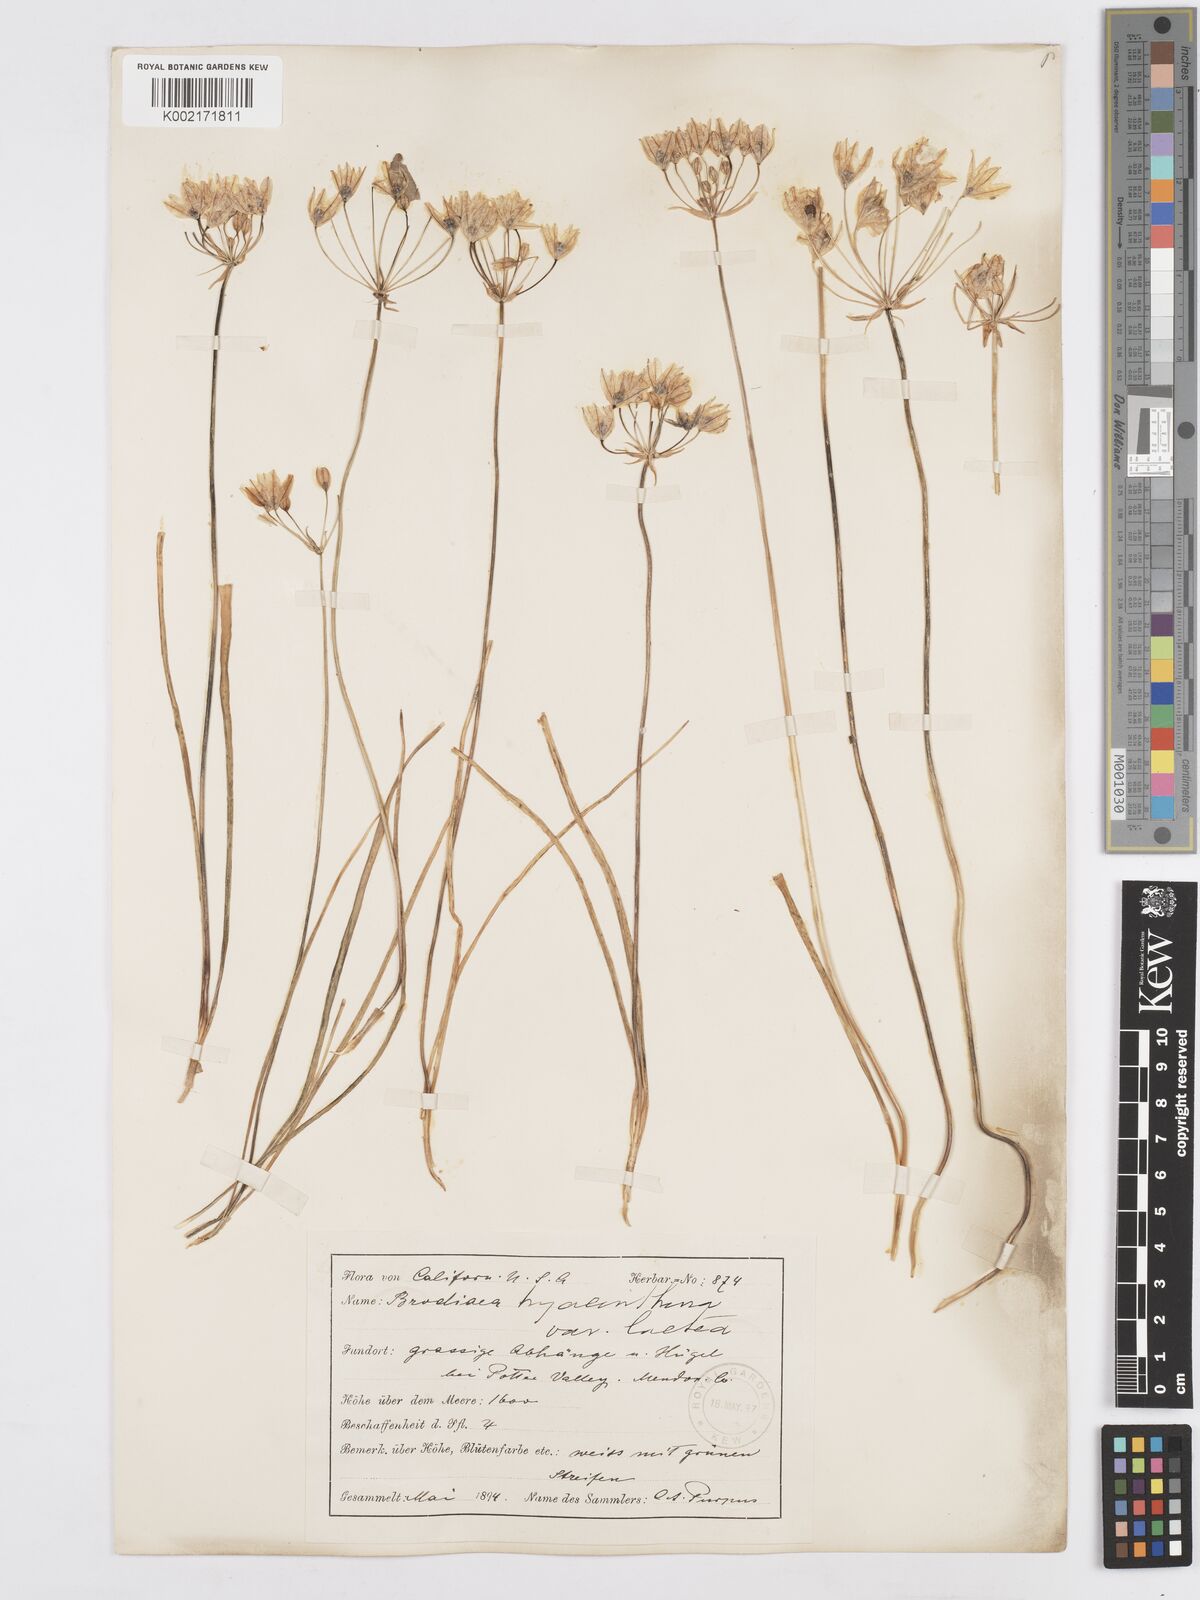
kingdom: Plantae
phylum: Tracheophyta
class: Liliopsida
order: Asparagales
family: Asparagaceae
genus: Triteleia
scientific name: Triteleia hyacinthina
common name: White brodiaea
